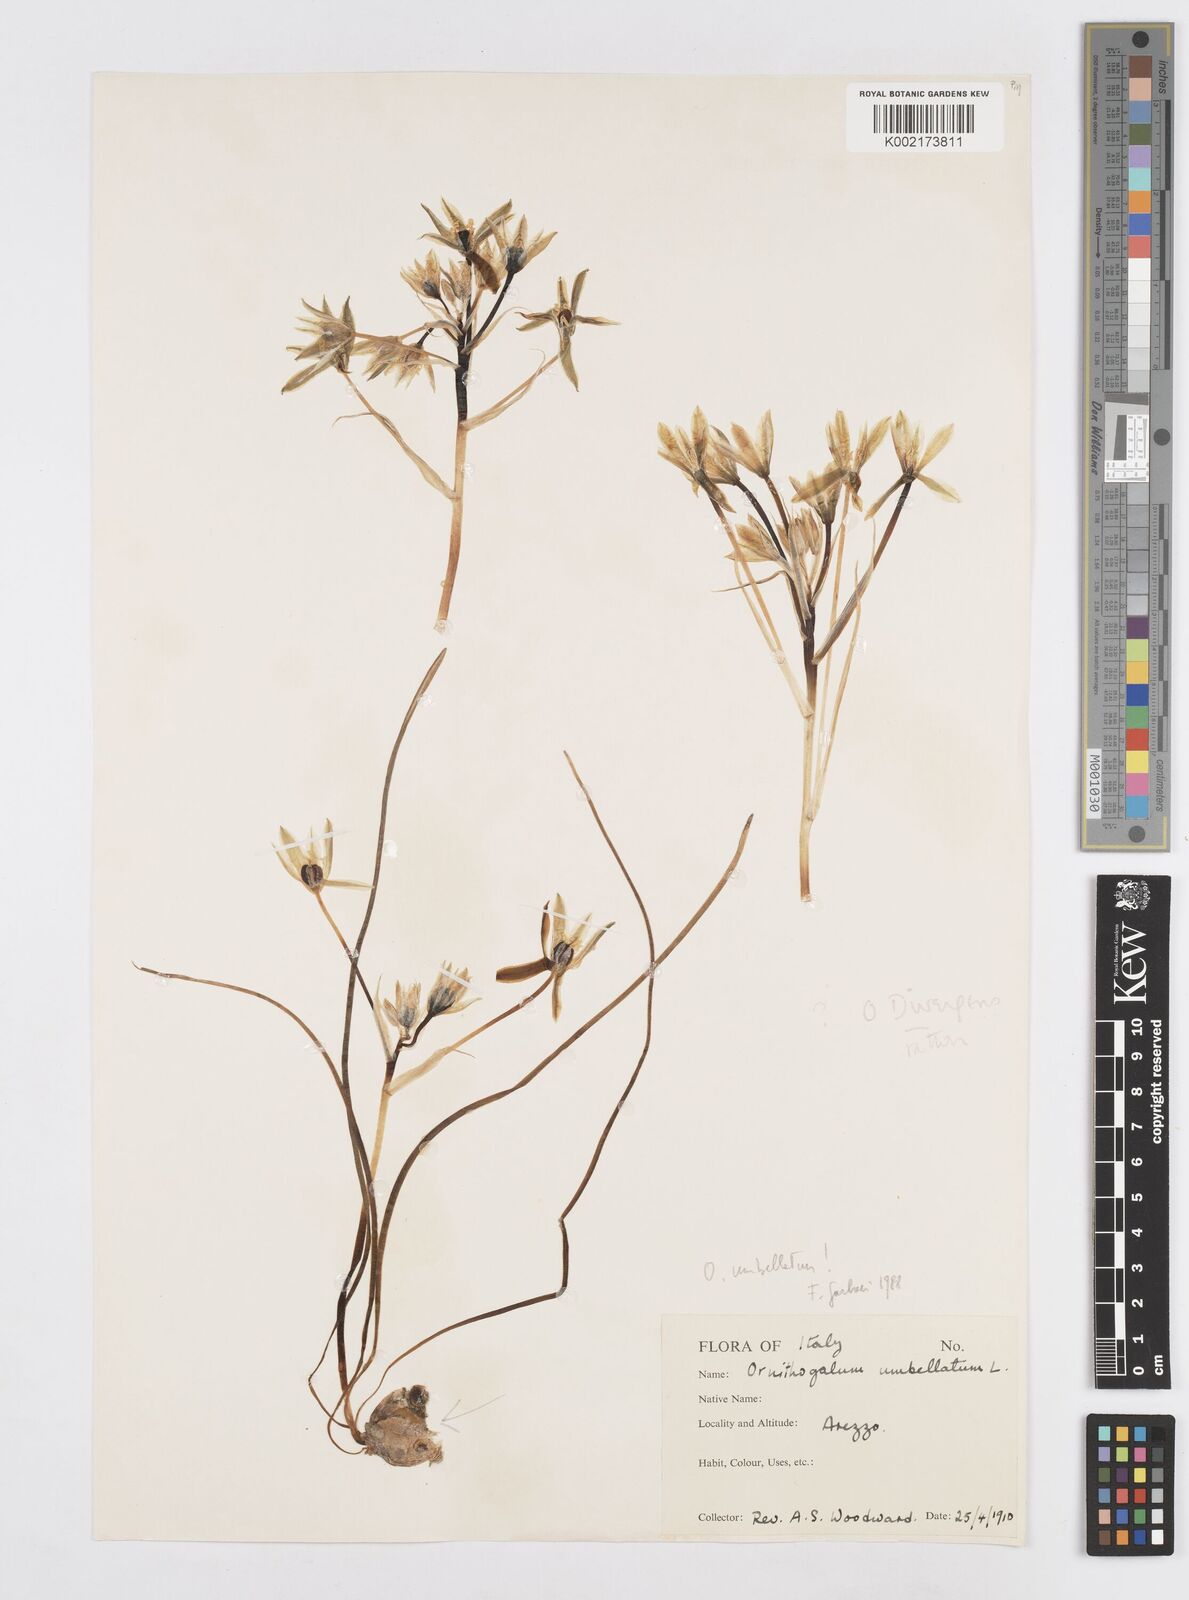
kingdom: Plantae
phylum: Tracheophyta
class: Liliopsida
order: Asparagales
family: Asparagaceae
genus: Ornithogalum
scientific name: Ornithogalum umbellatum
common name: Garden star-of-bethlehem
